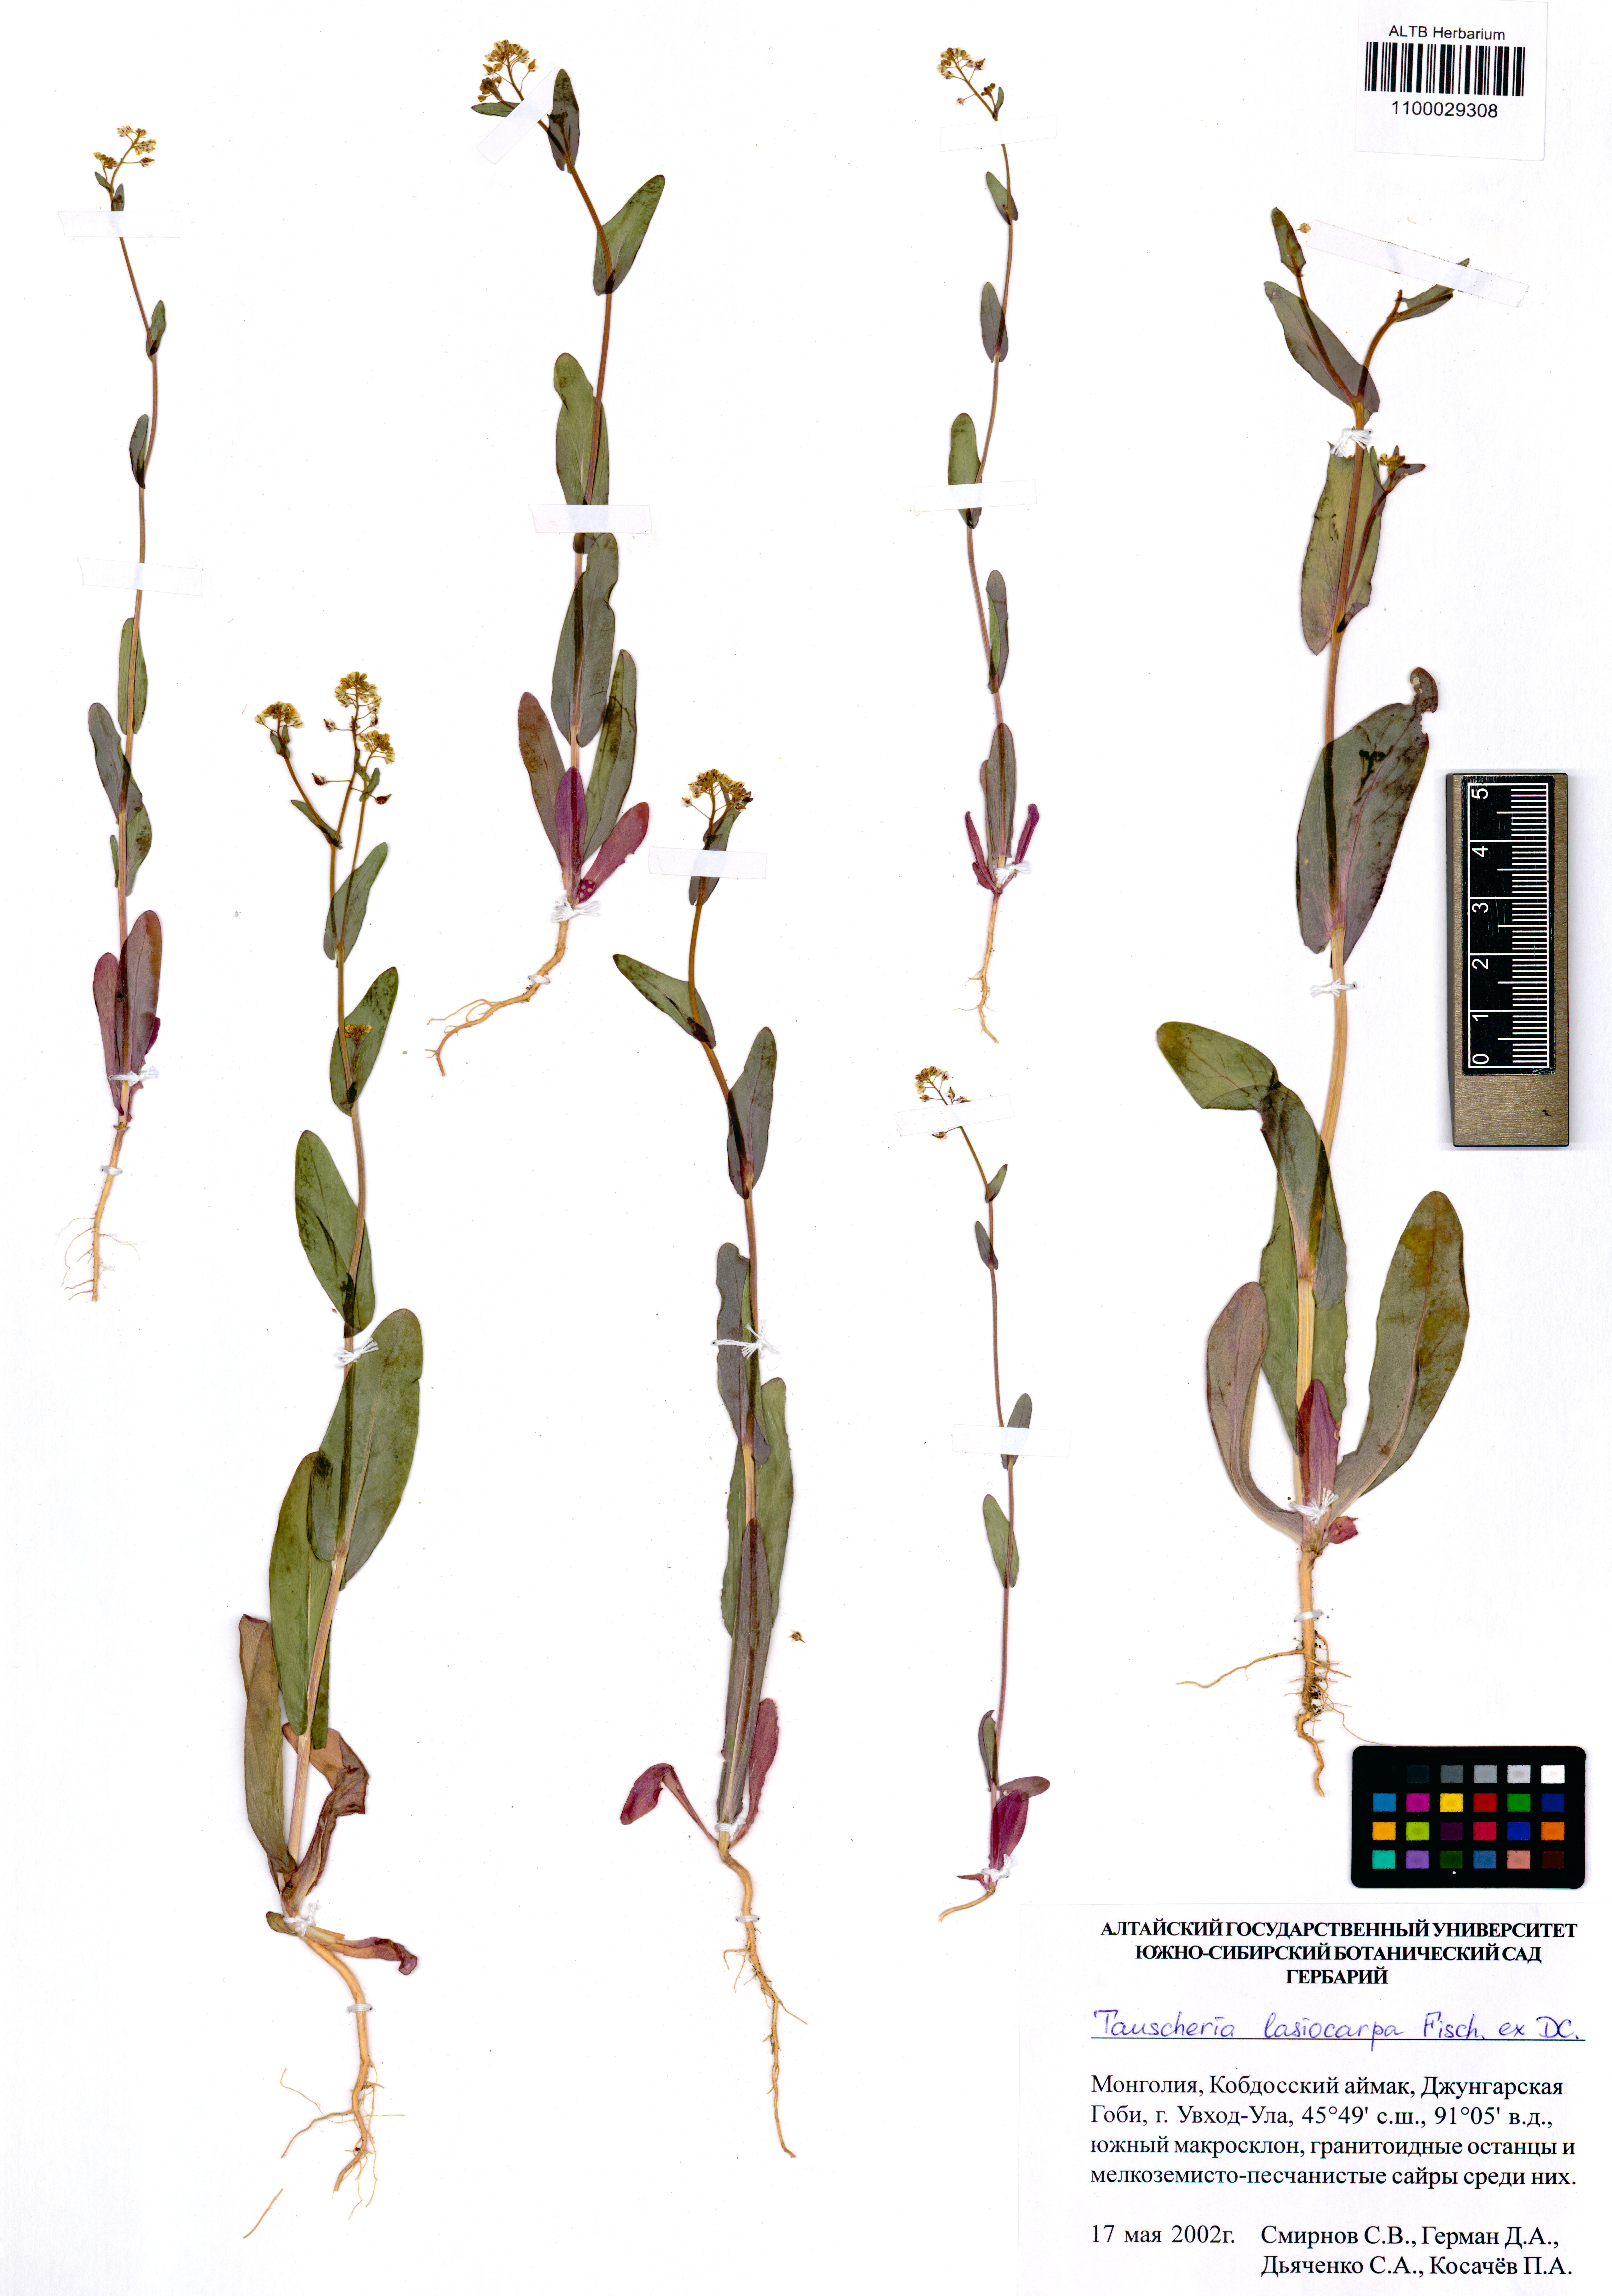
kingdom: Plantae
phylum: Tracheophyta
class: Magnoliopsida
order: Brassicales
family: Brassicaceae
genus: Tauscheria
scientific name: Tauscheria lasiocarpa
